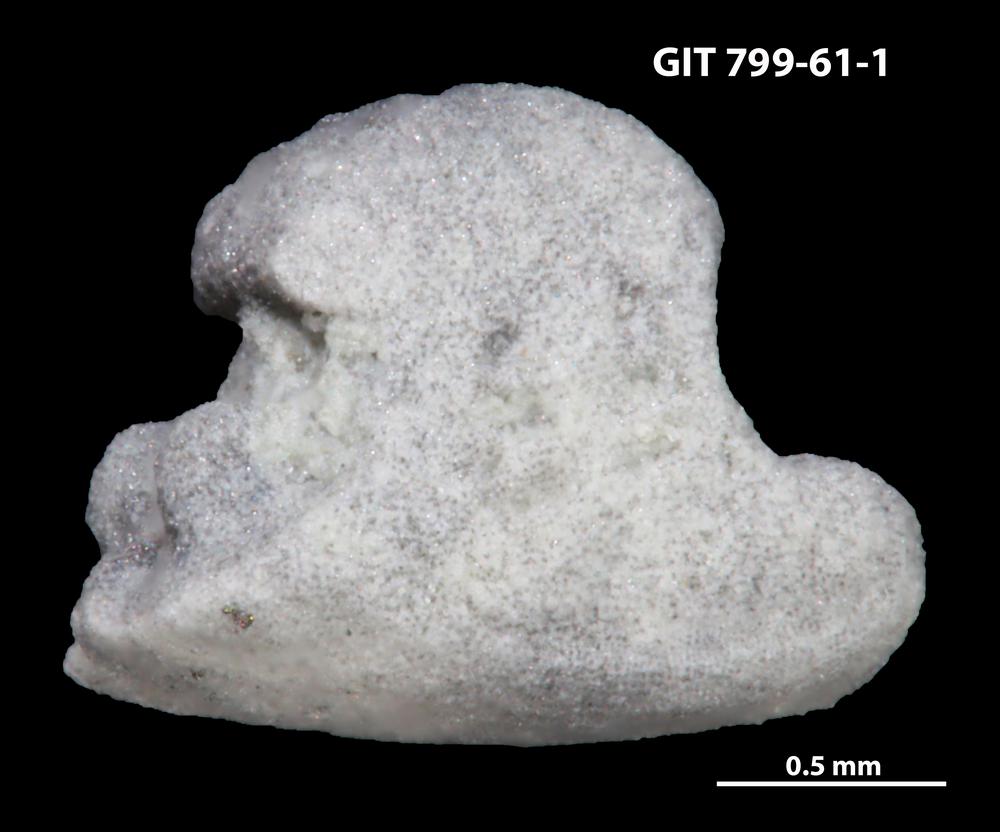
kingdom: Animalia
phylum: Echinodermata
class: Crinoidea
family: Cyclocystoididae
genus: Polytryphocycloides
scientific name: Polytryphocycloides
